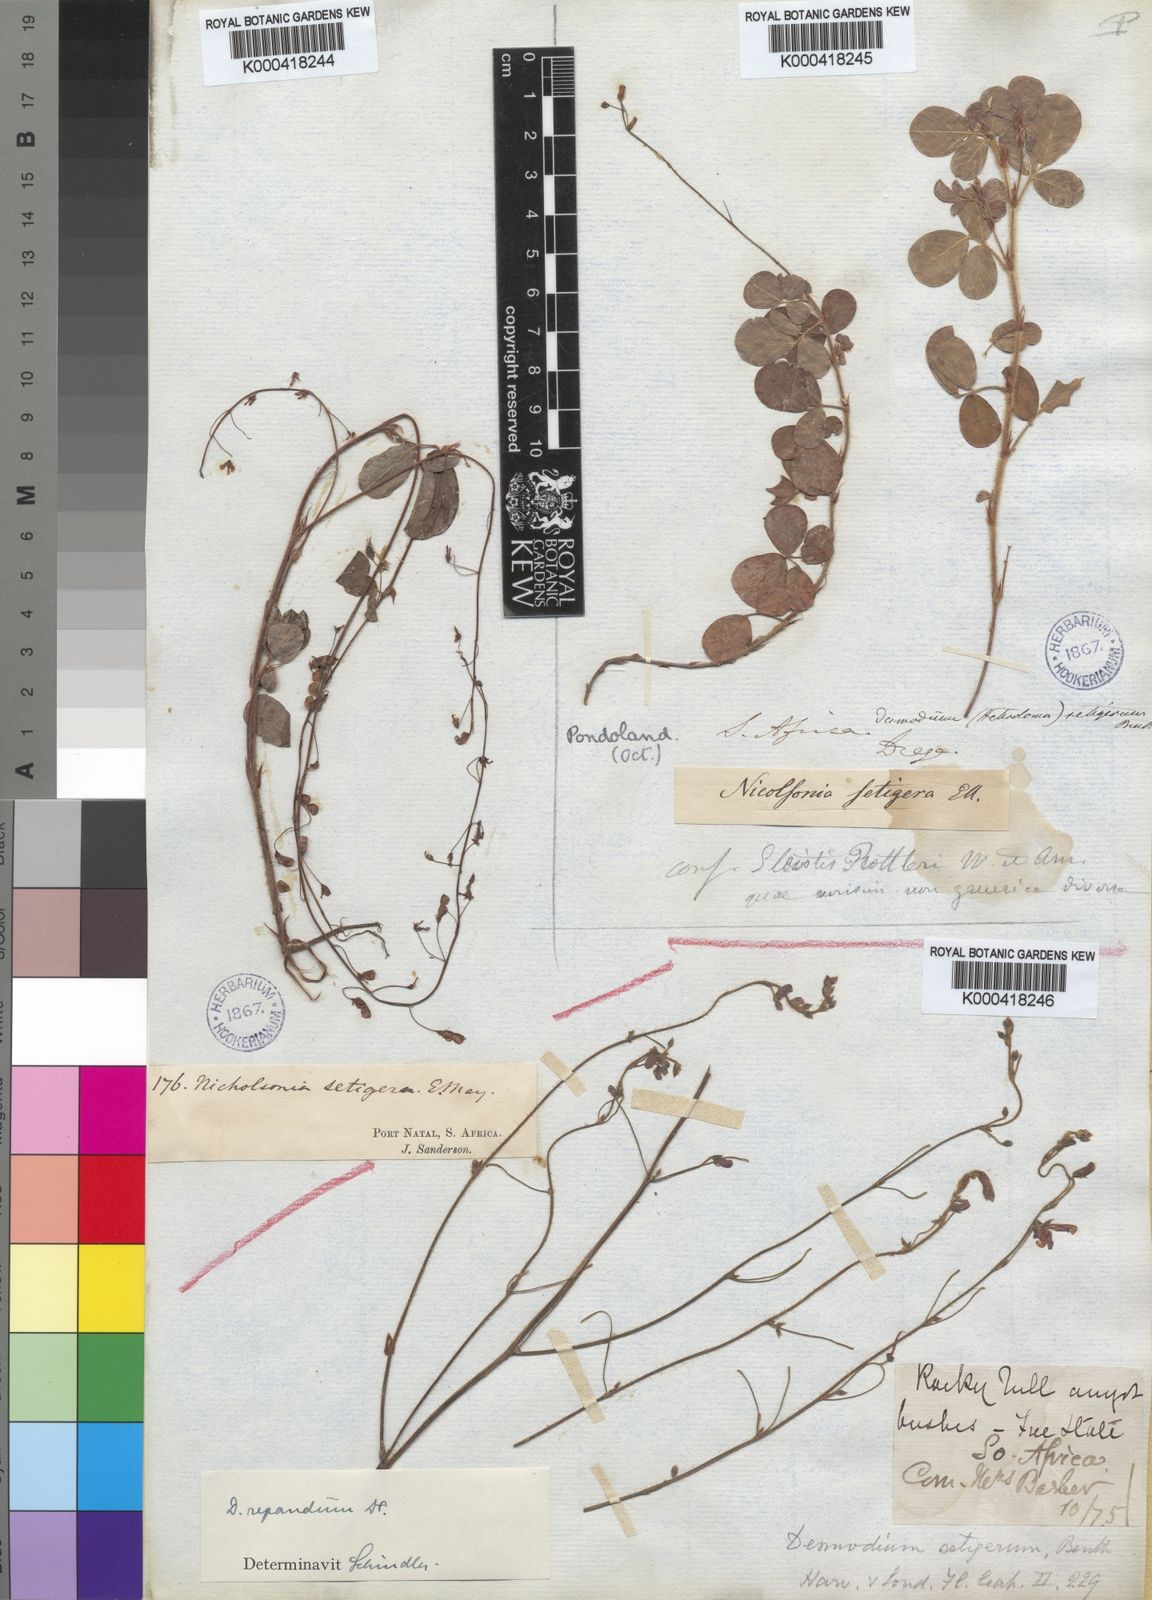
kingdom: Plantae
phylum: Tracheophyta
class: Magnoliopsida
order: Fabales
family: Fabaceae
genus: Grona
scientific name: Grona setigera
